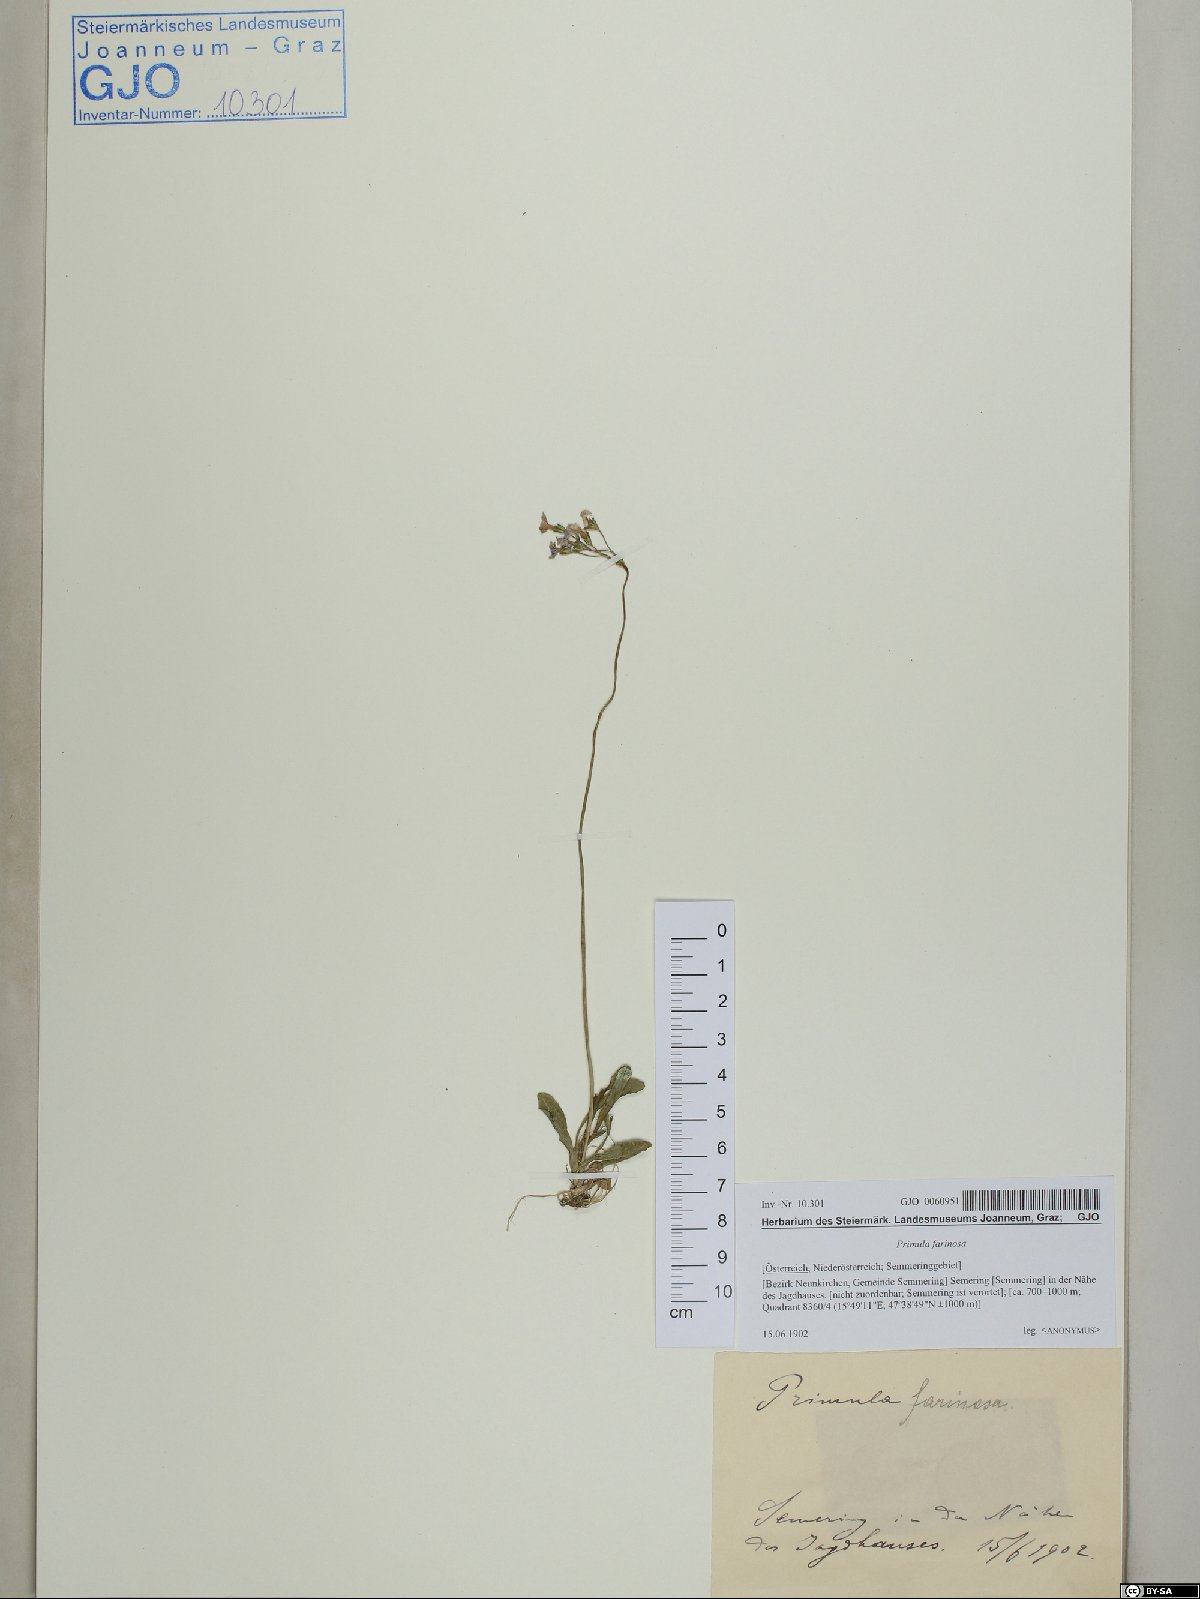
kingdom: Plantae
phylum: Tracheophyta
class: Magnoliopsida
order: Ericales
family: Primulaceae
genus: Primula
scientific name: Primula farinosa
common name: Bird's-eye primrose
